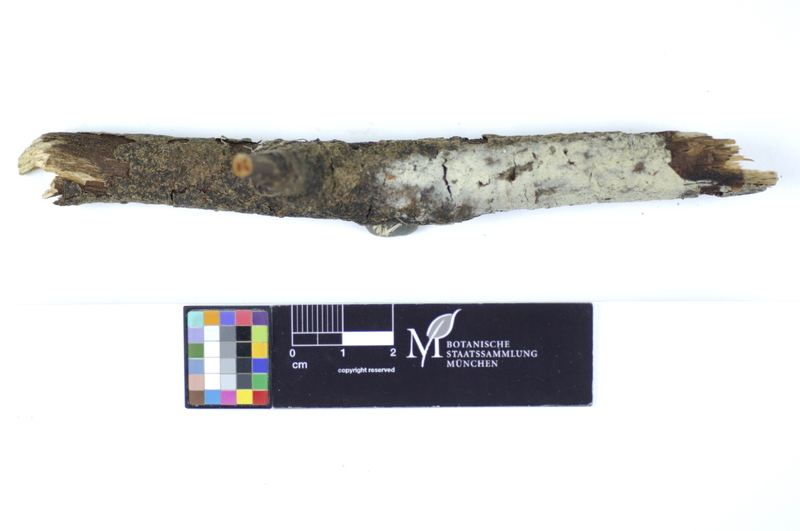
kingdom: Plantae
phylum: Tracheophyta
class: Magnoliopsida
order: Malpighiales
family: Salicaceae
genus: Salix
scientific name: Salix
